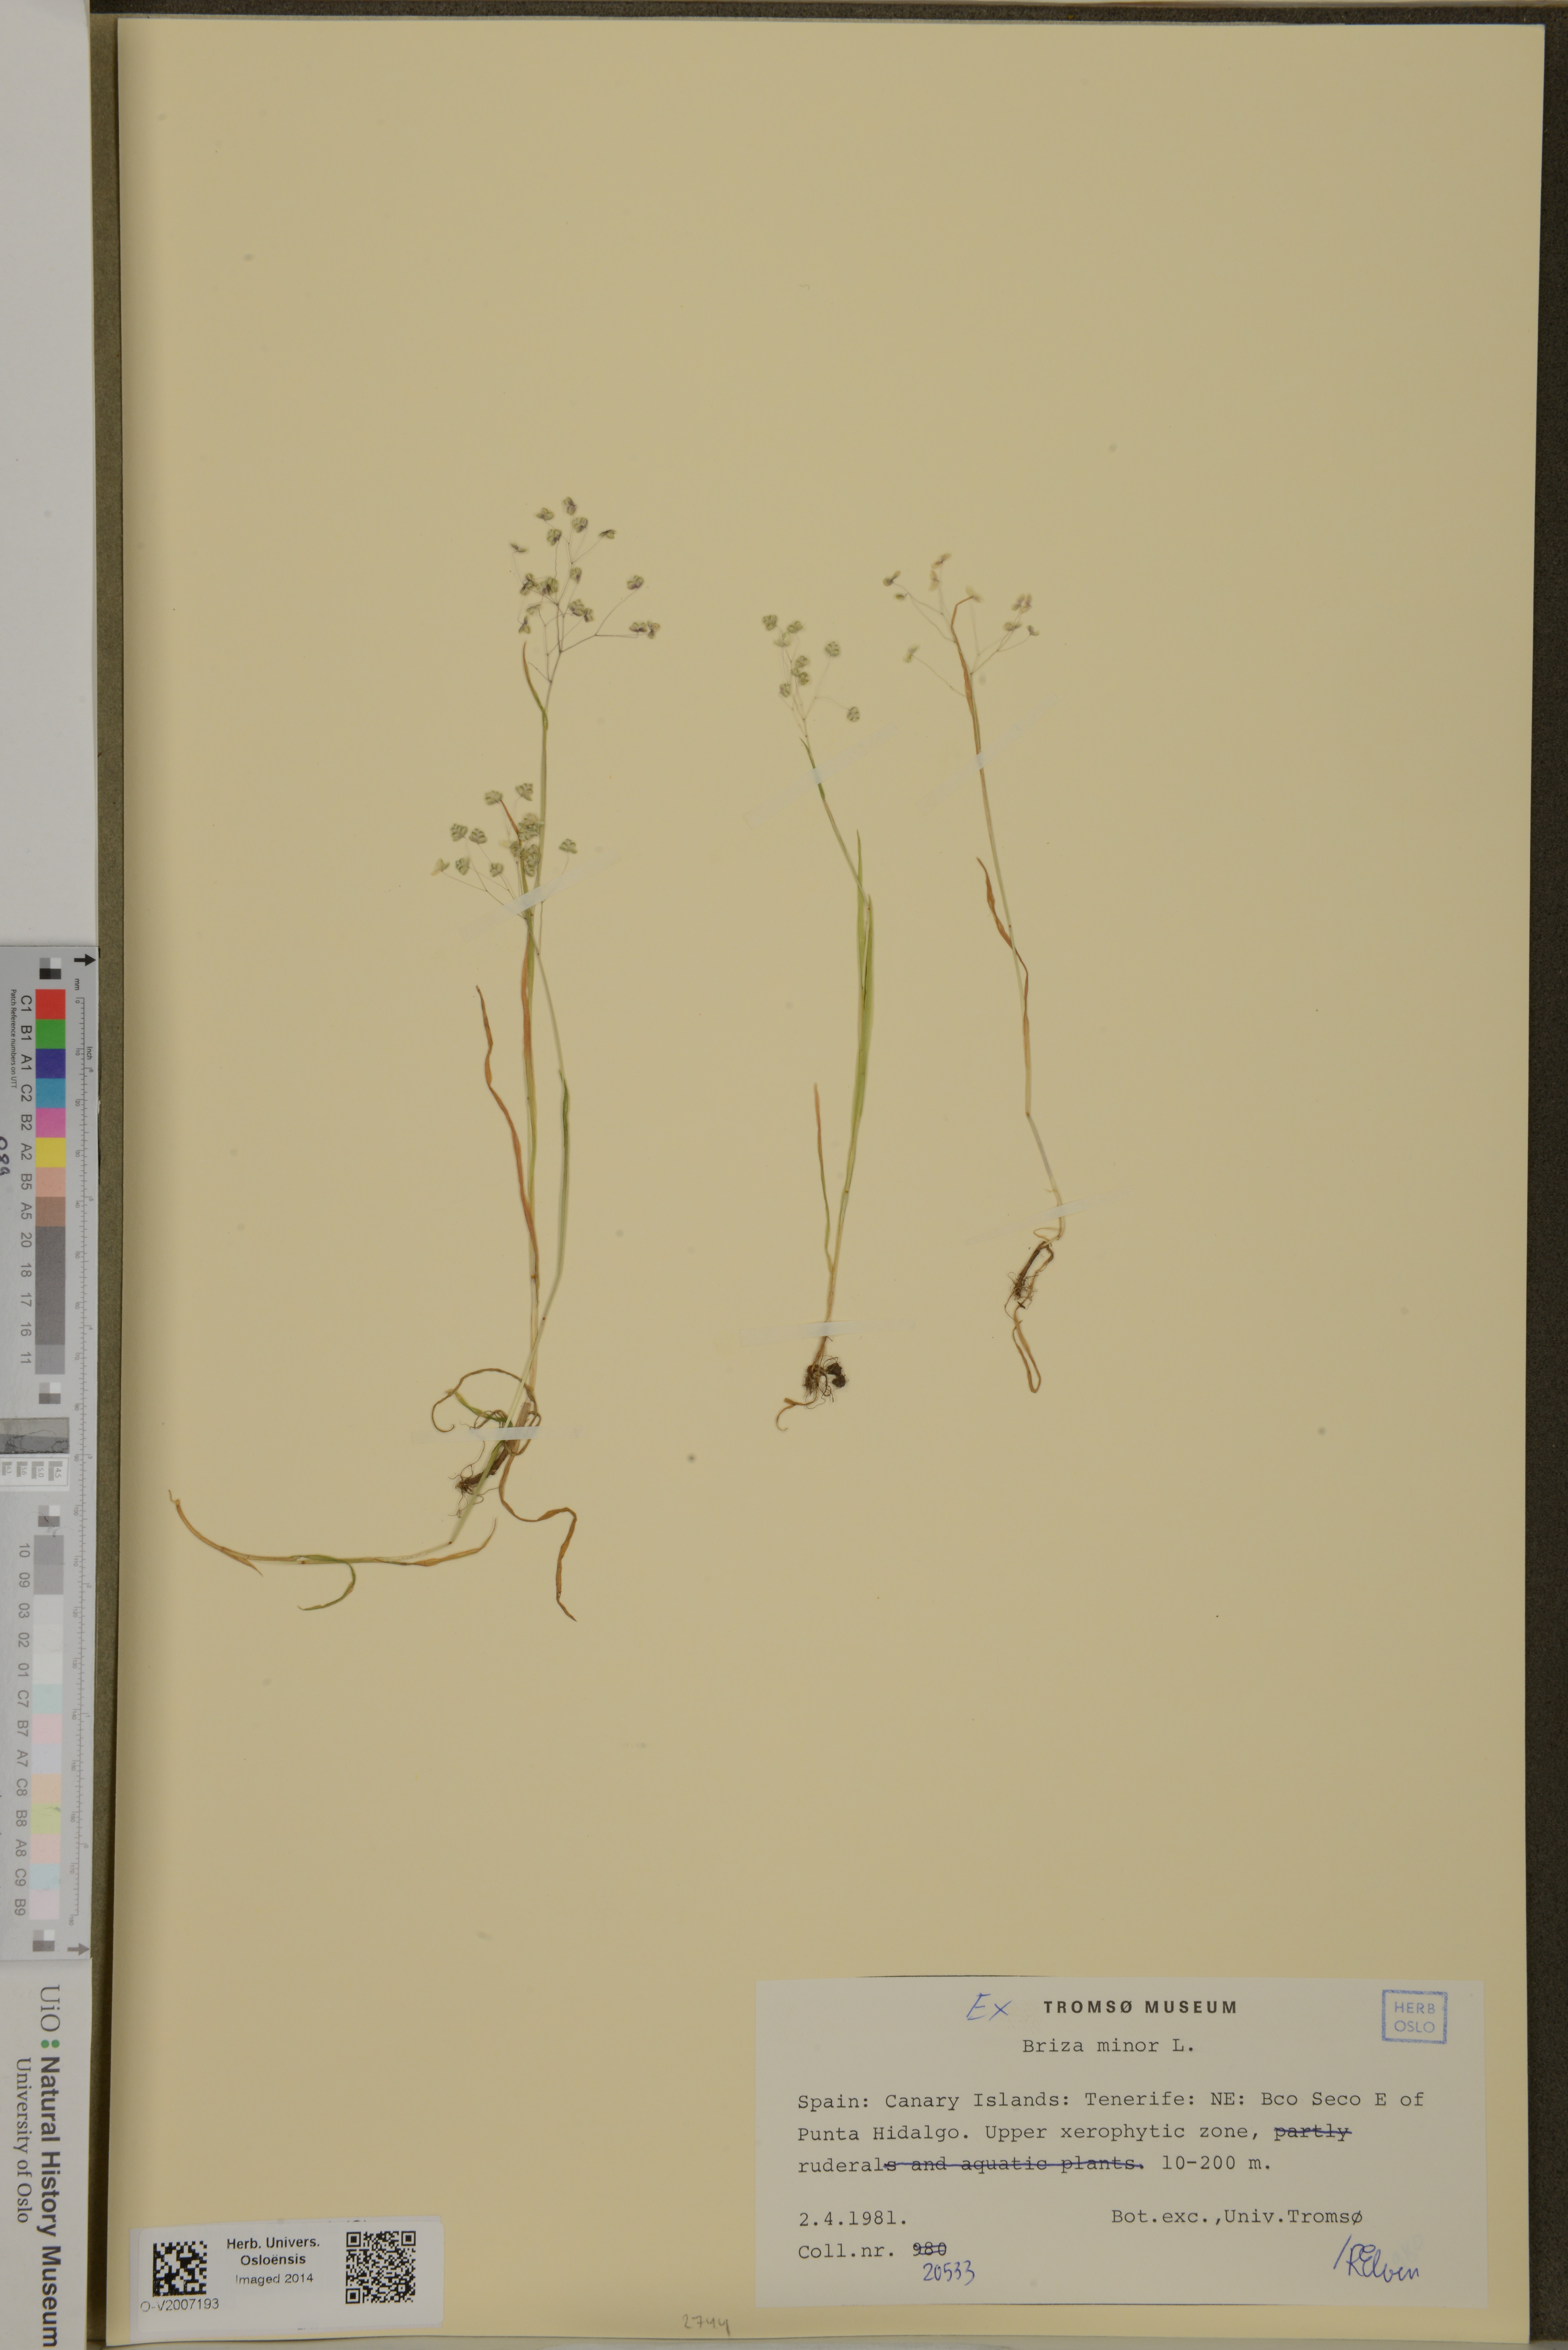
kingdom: Plantae
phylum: Tracheophyta
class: Liliopsida
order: Poales
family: Poaceae
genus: Briza
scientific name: Briza minor
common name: Lesser quaking-grass
